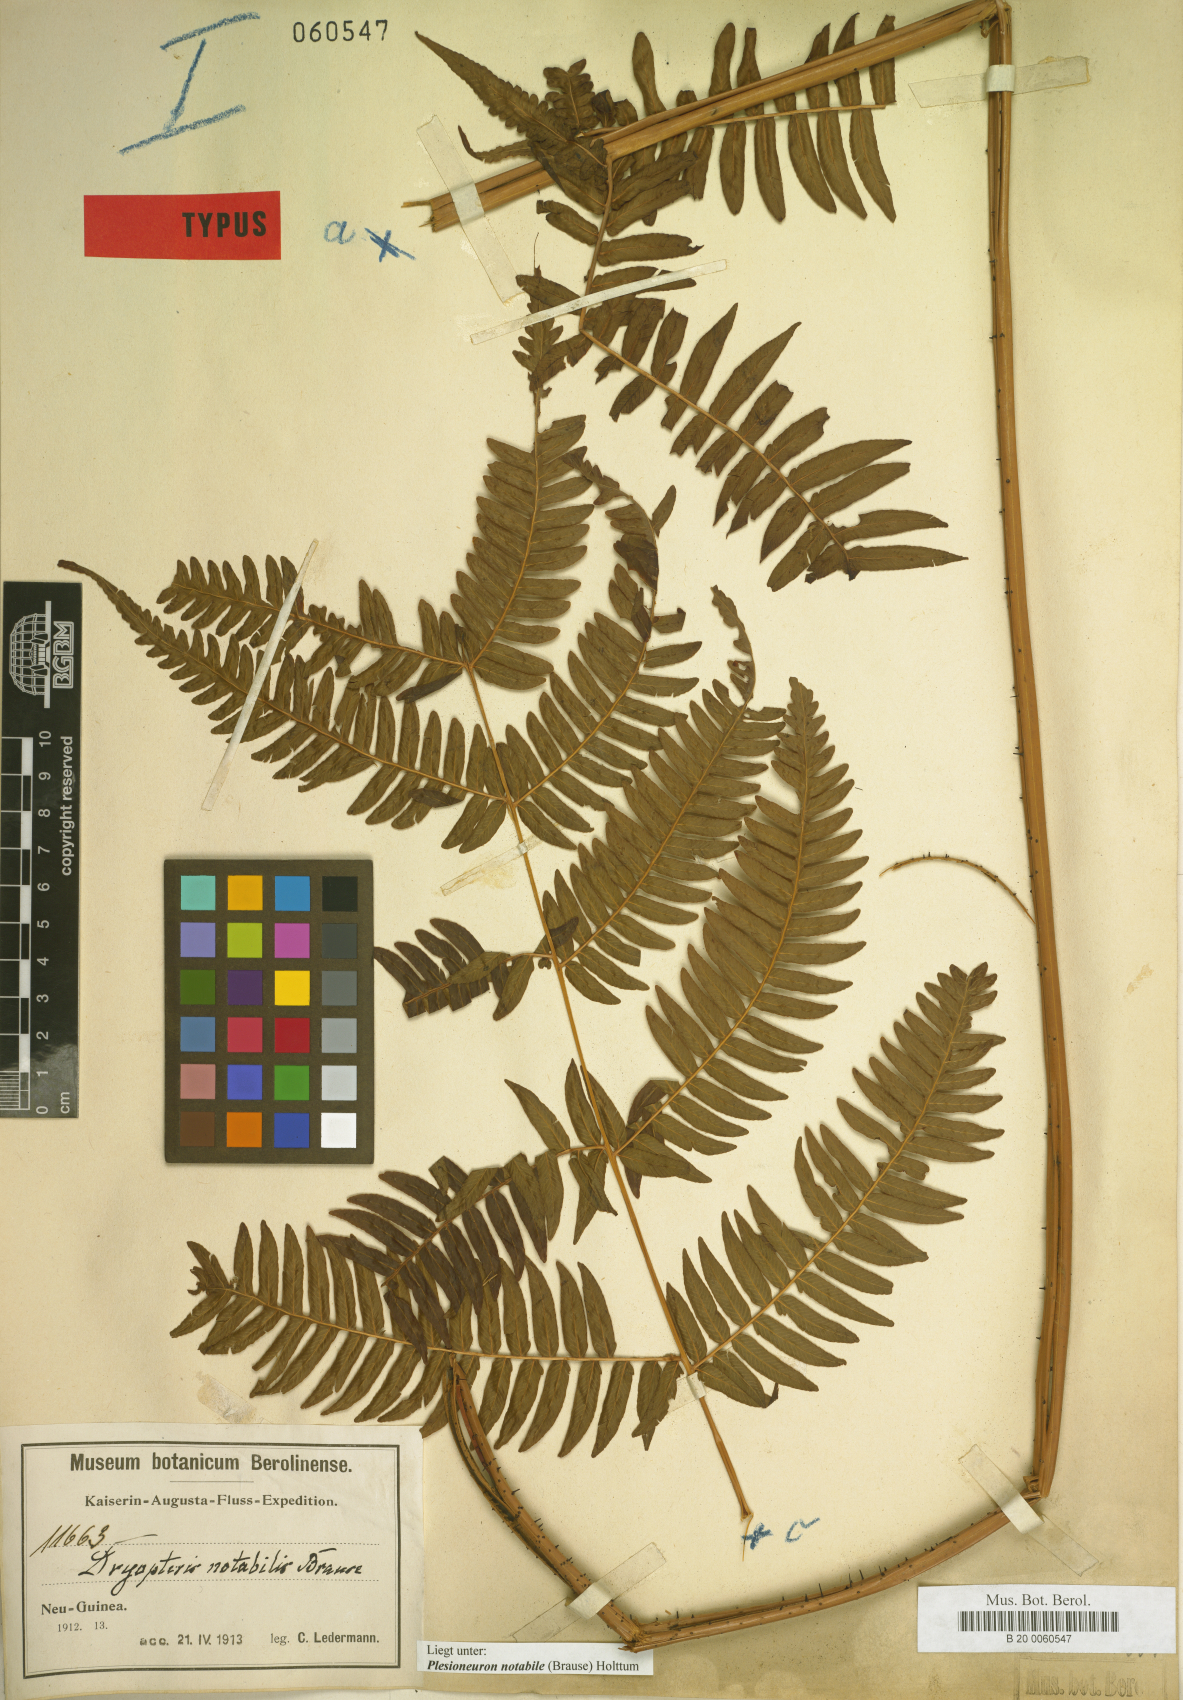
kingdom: Plantae
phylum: Tracheophyta
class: Polypodiopsida
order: Polypodiales
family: Thelypteridaceae
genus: Plesioneuron
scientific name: Plesioneuron notabile
